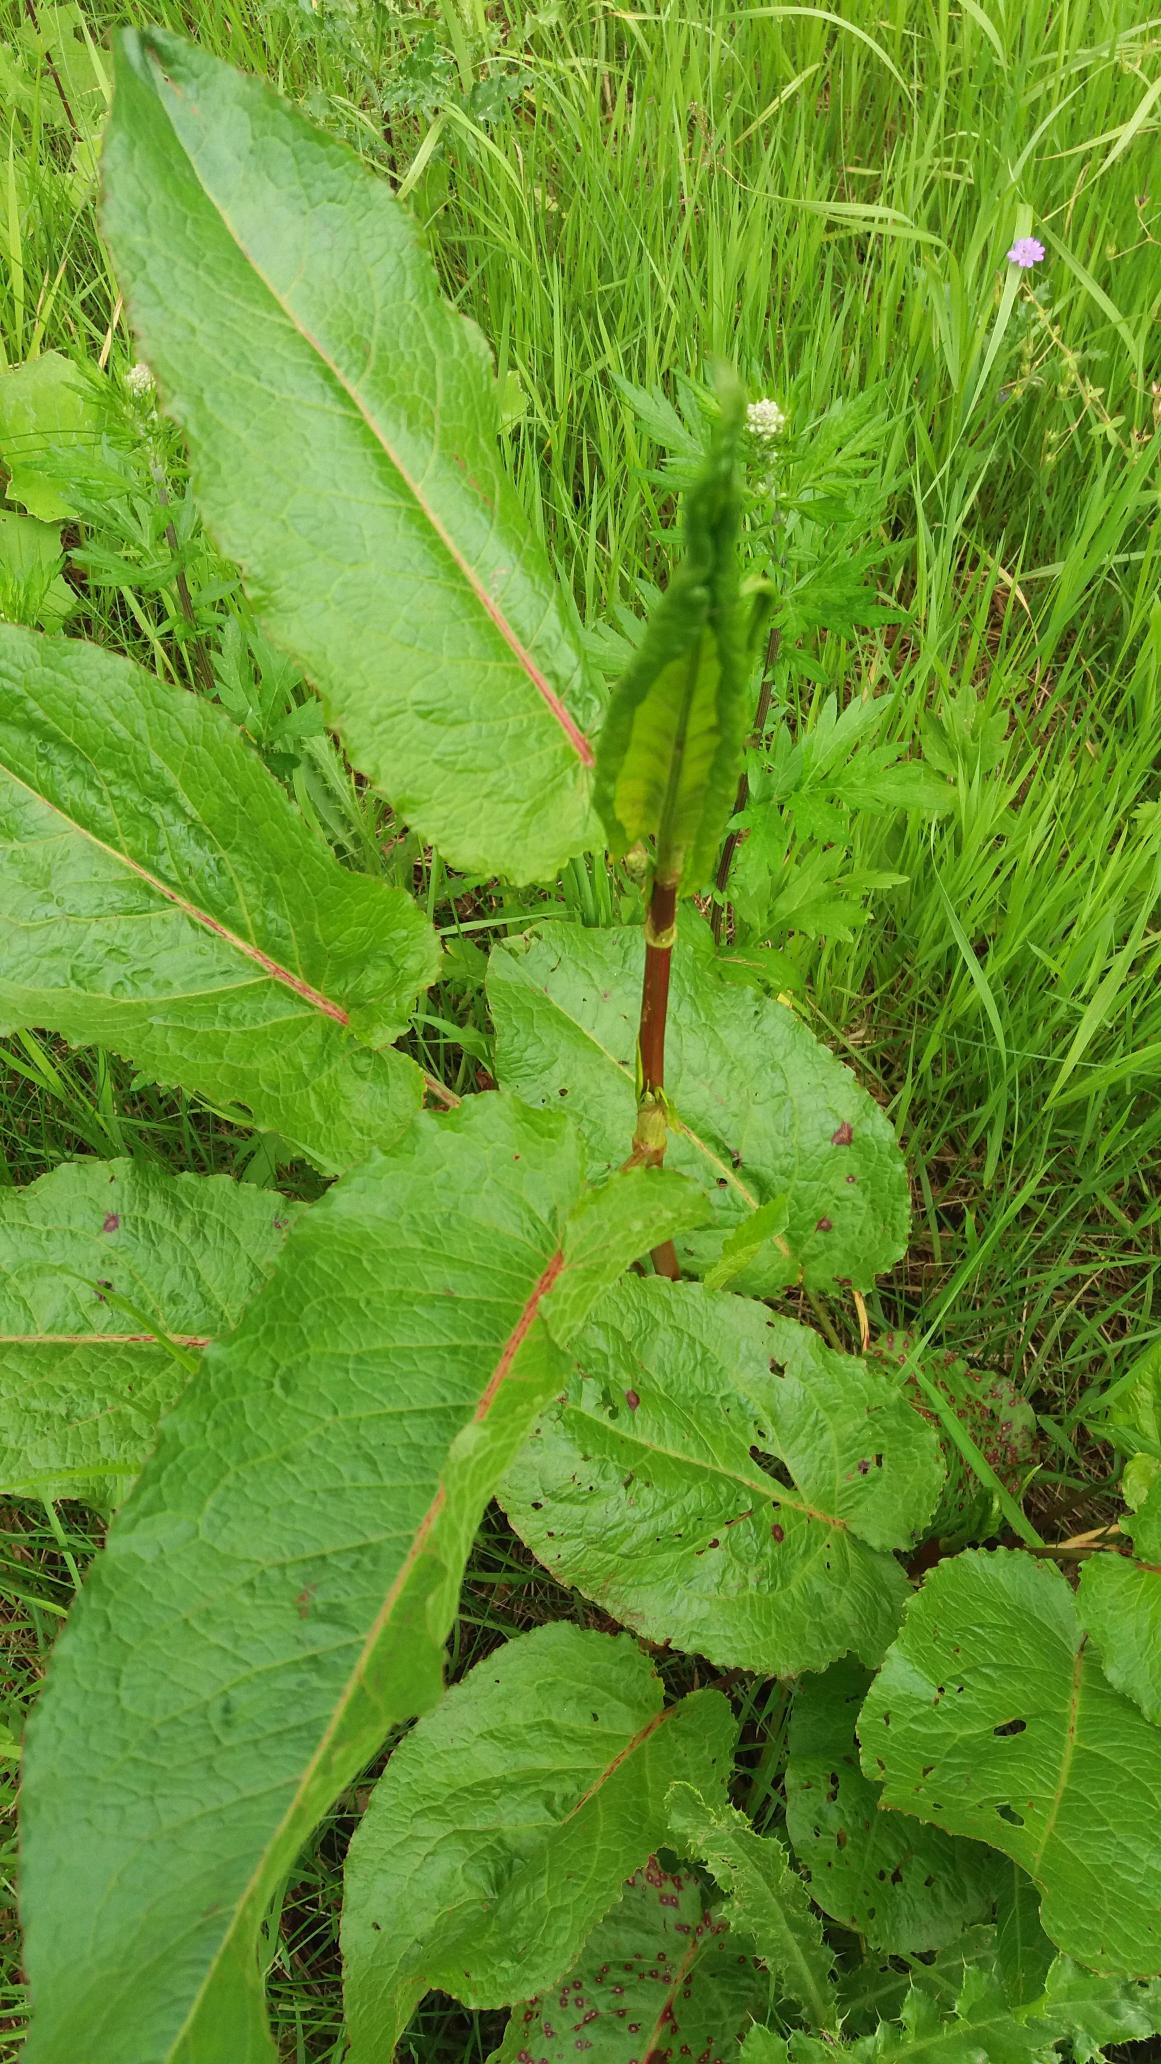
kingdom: Plantae
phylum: Tracheophyta
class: Magnoliopsida
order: Caryophyllales
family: Polygonaceae
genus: Rumex
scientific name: Rumex obtusifolius
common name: Butbladet skræppe
